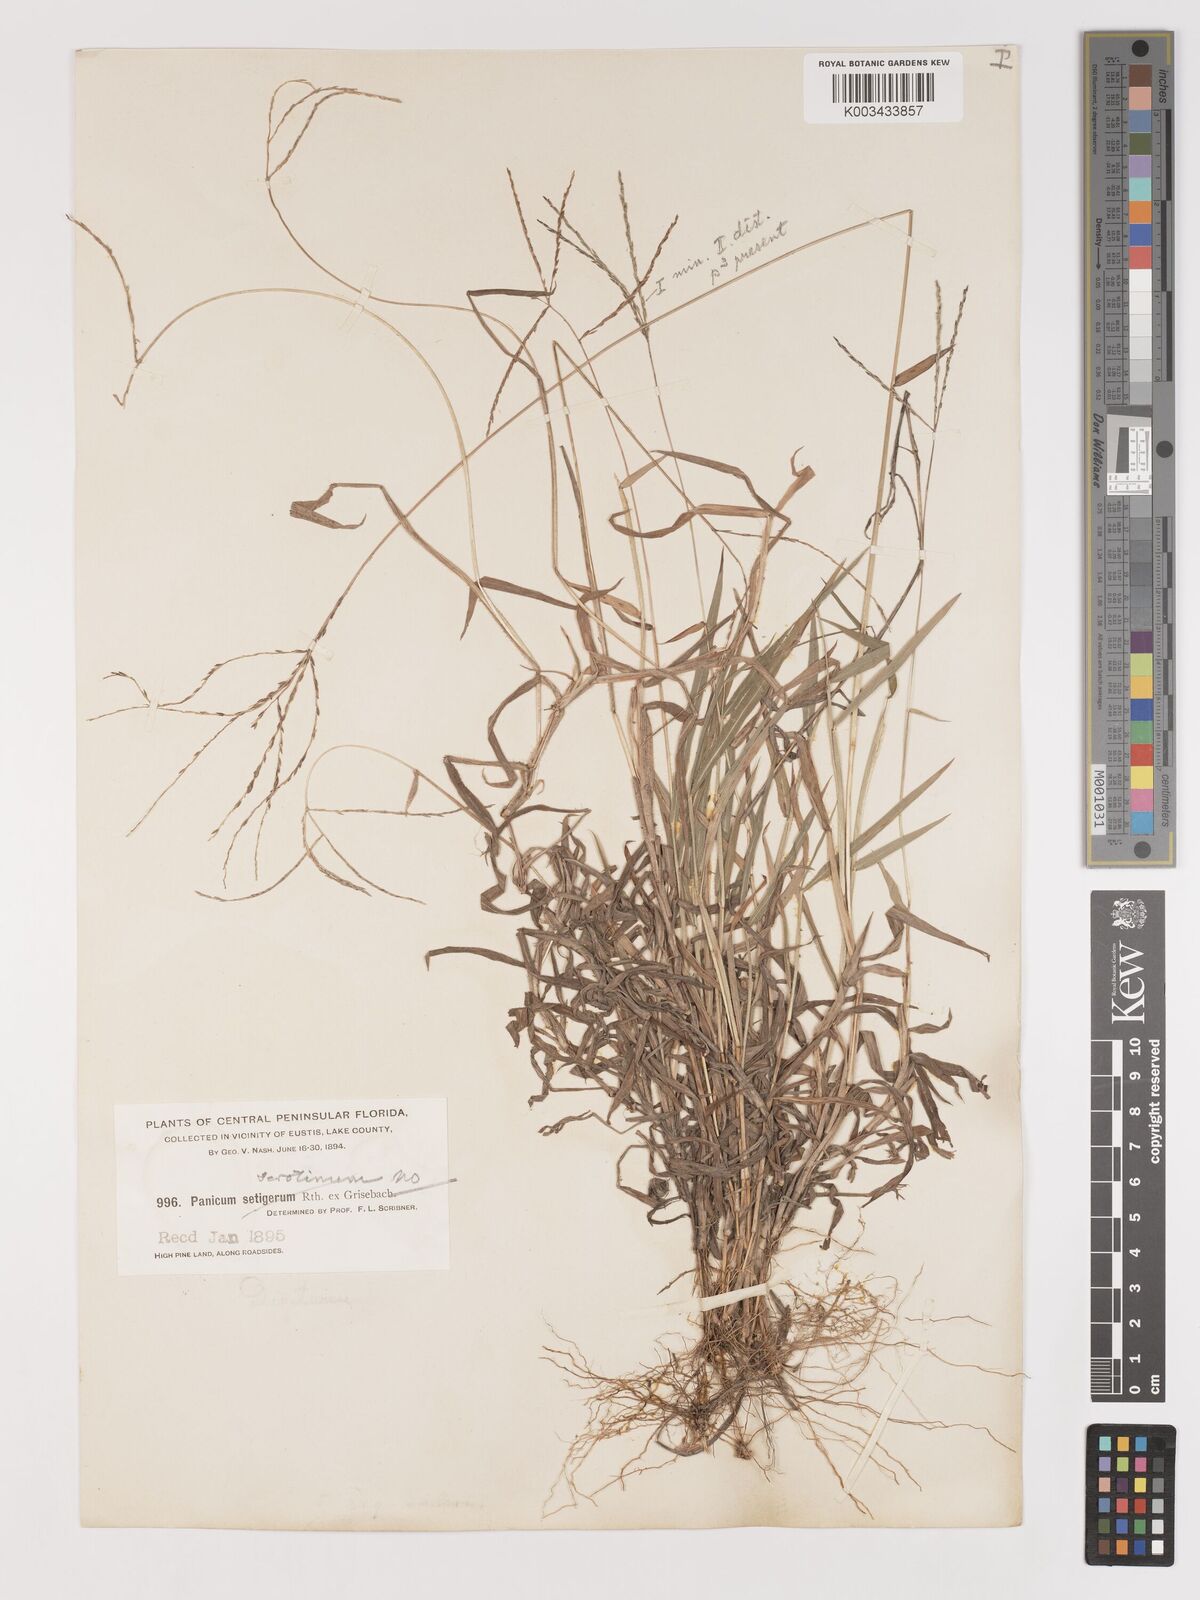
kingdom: Plantae
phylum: Tracheophyta
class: Liliopsida
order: Poales
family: Poaceae
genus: Digitaria
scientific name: Digitaria horizontalis
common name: Jamaican crabgrass
